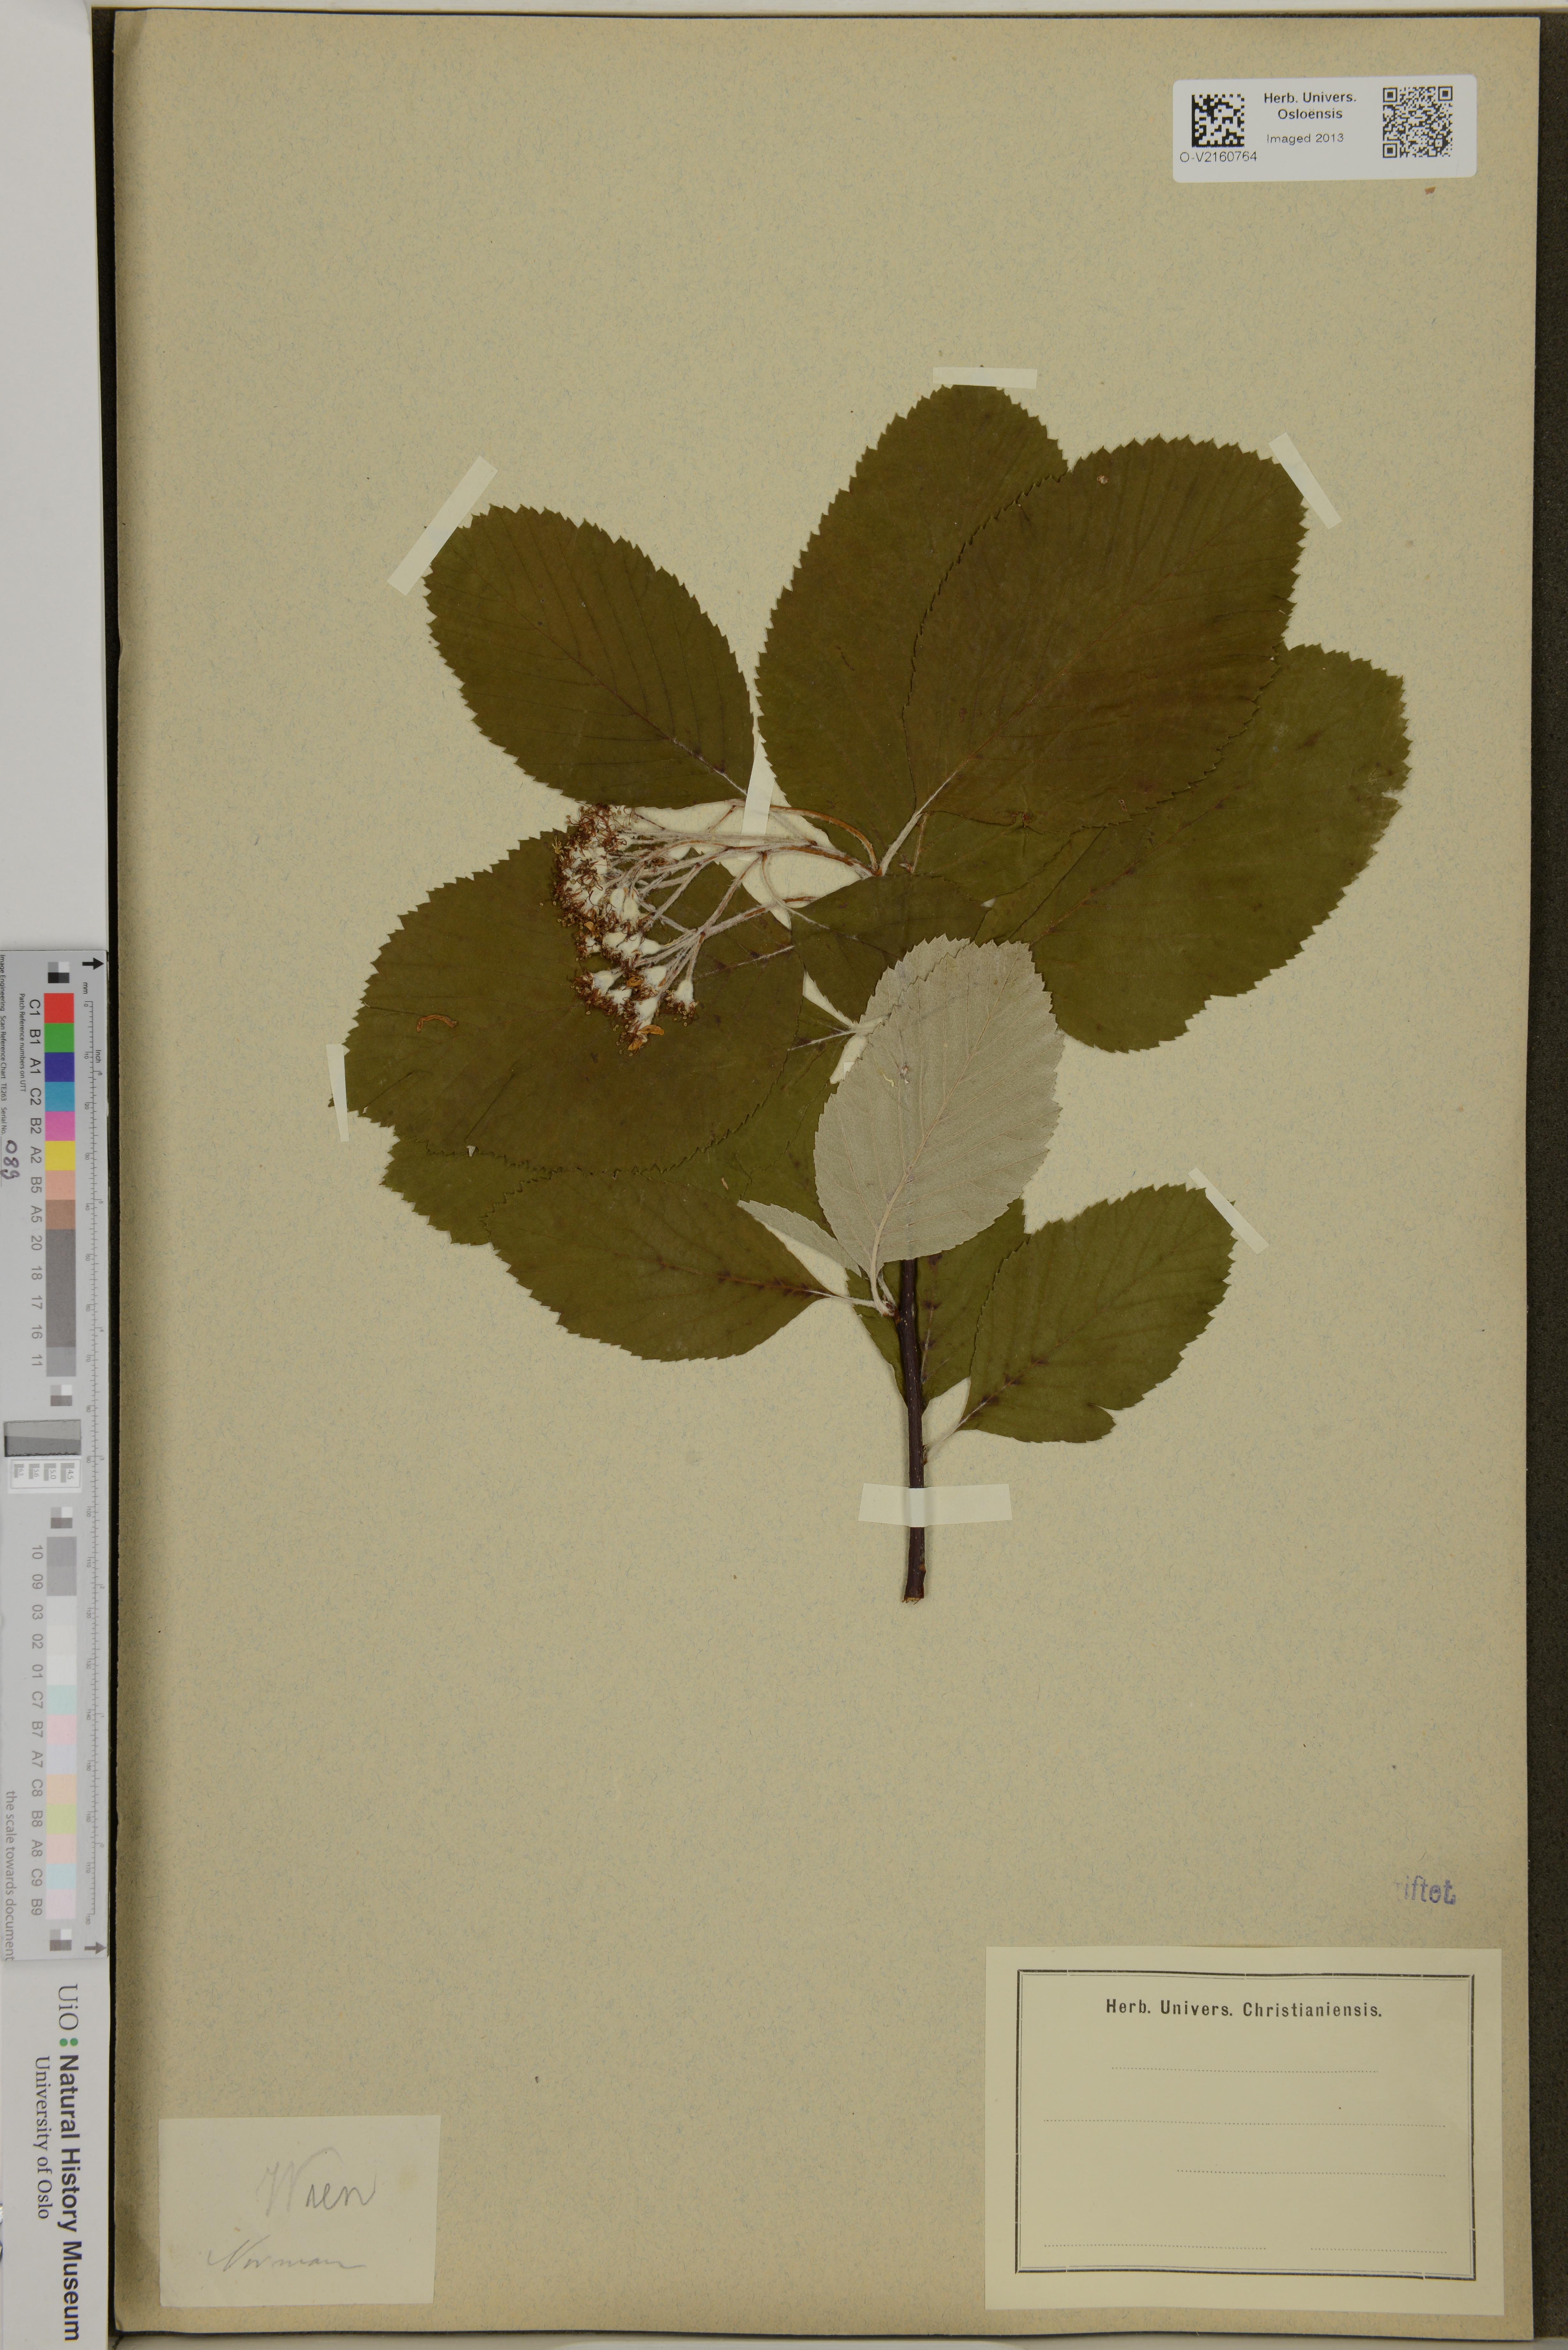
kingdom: Plantae
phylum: Tracheophyta
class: Magnoliopsida
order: Rosales
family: Rosaceae
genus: Sorbus
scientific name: Sorbus
